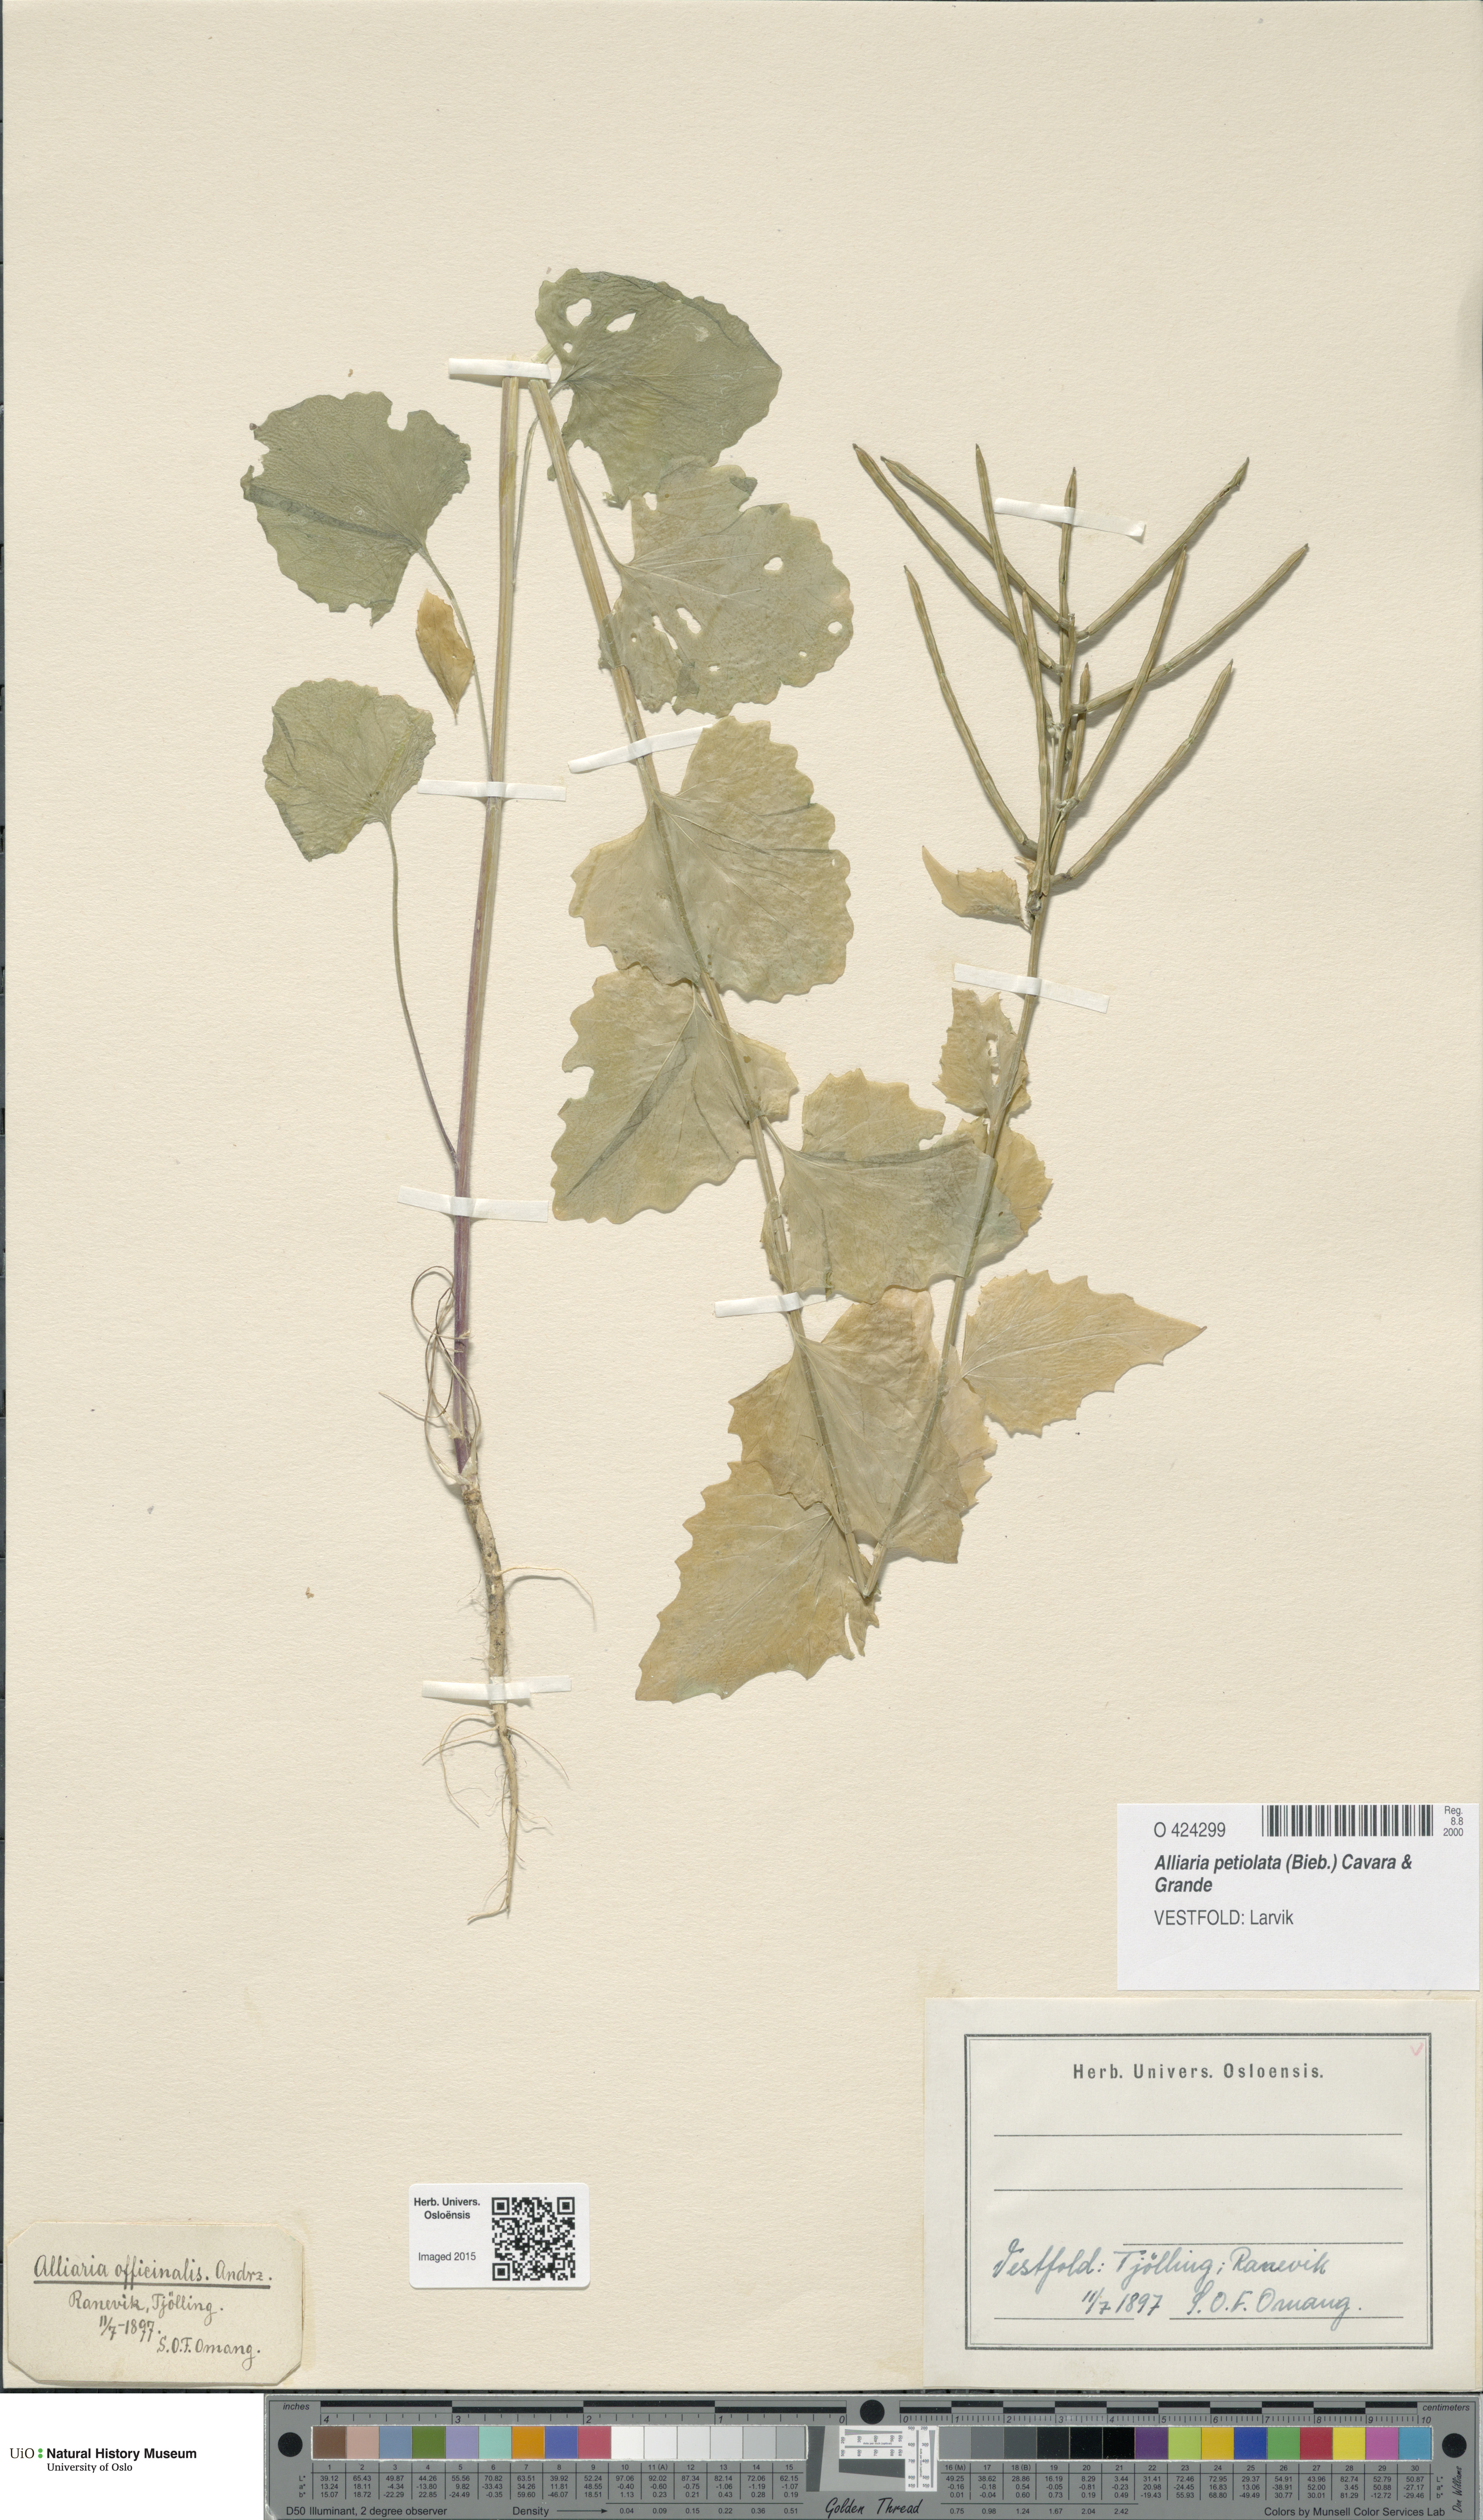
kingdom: Plantae
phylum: Tracheophyta
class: Magnoliopsida
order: Brassicales
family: Brassicaceae
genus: Alliaria
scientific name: Alliaria petiolata
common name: Garlic mustard
